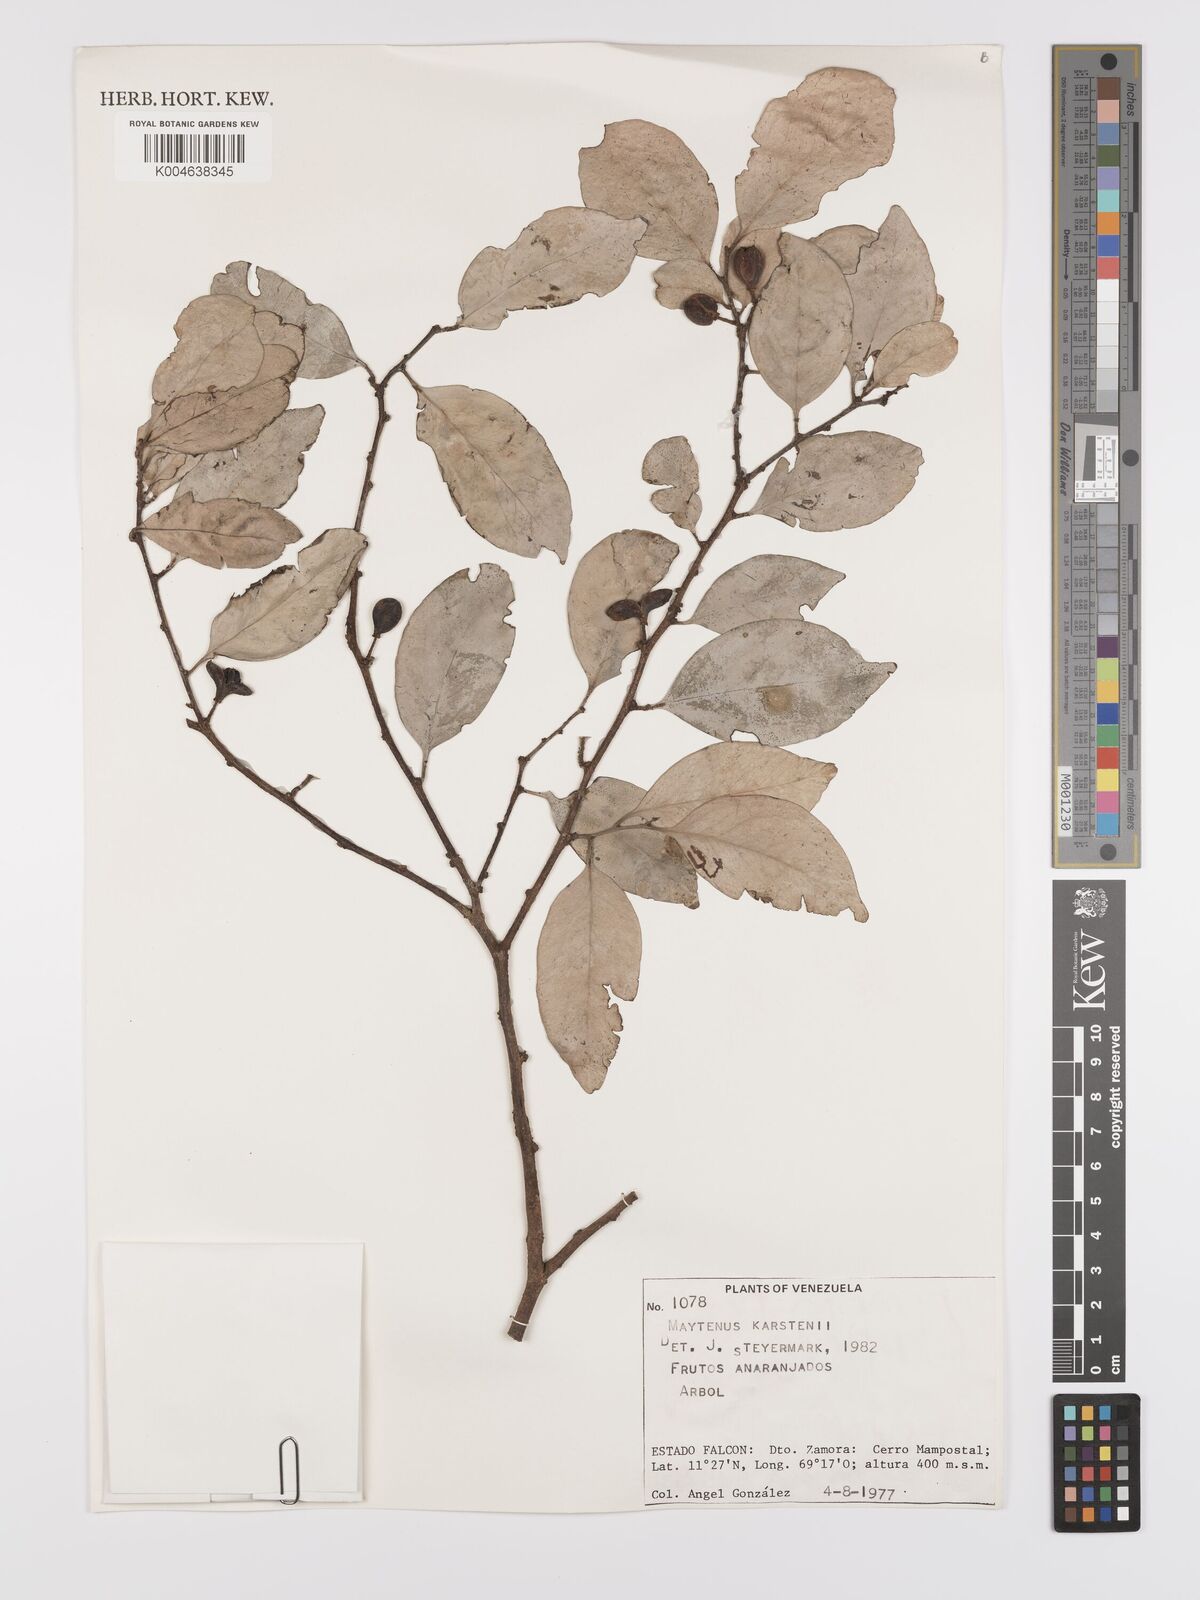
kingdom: Plantae
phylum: Tracheophyta
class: Magnoliopsida
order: Celastrales
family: Celastraceae
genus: Monteverdia
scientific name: Monteverdia karstenii
